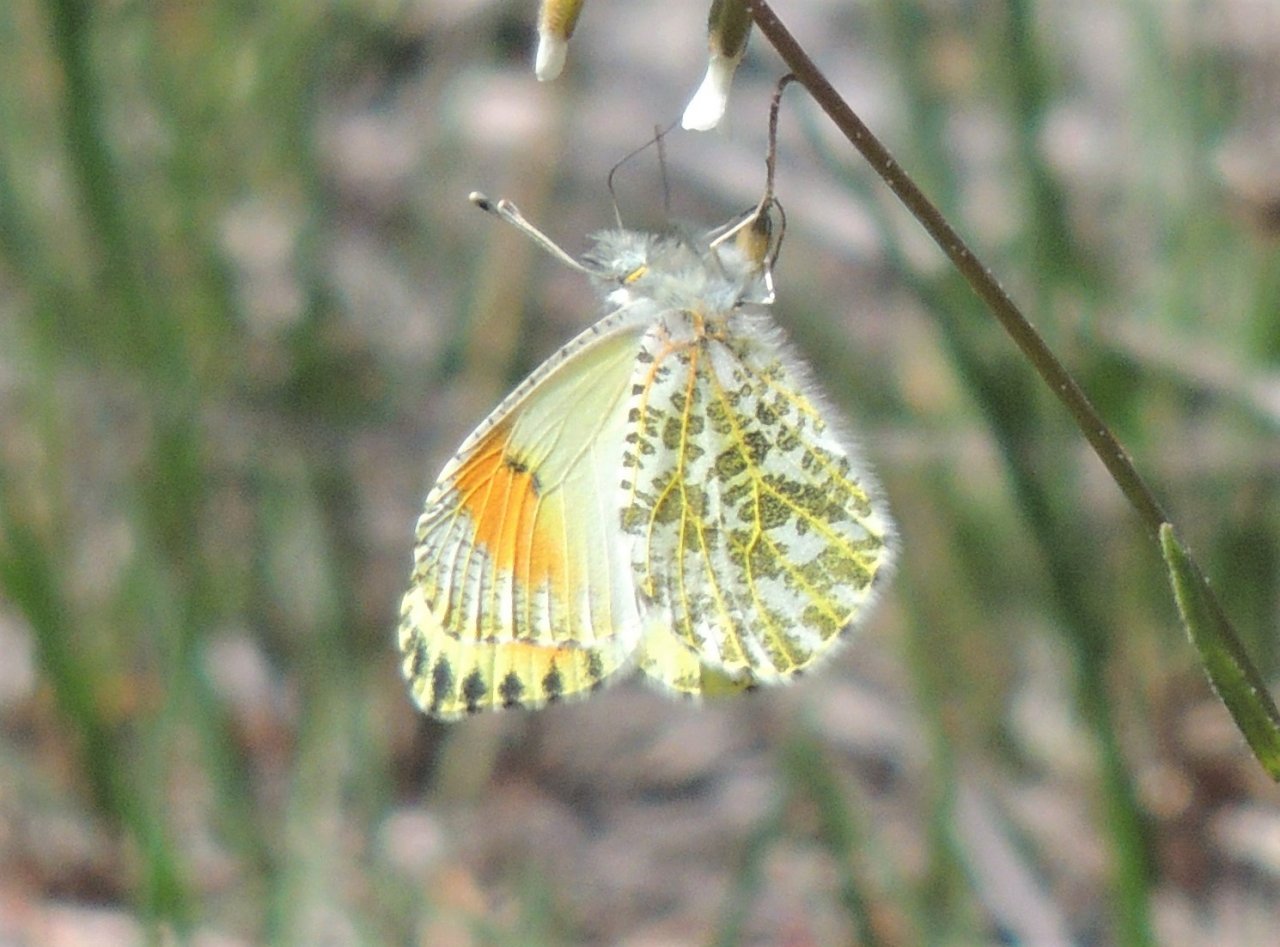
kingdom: Animalia
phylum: Arthropoda
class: Insecta
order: Lepidoptera
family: Pieridae
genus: Anthocharis
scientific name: Anthocharis sara
